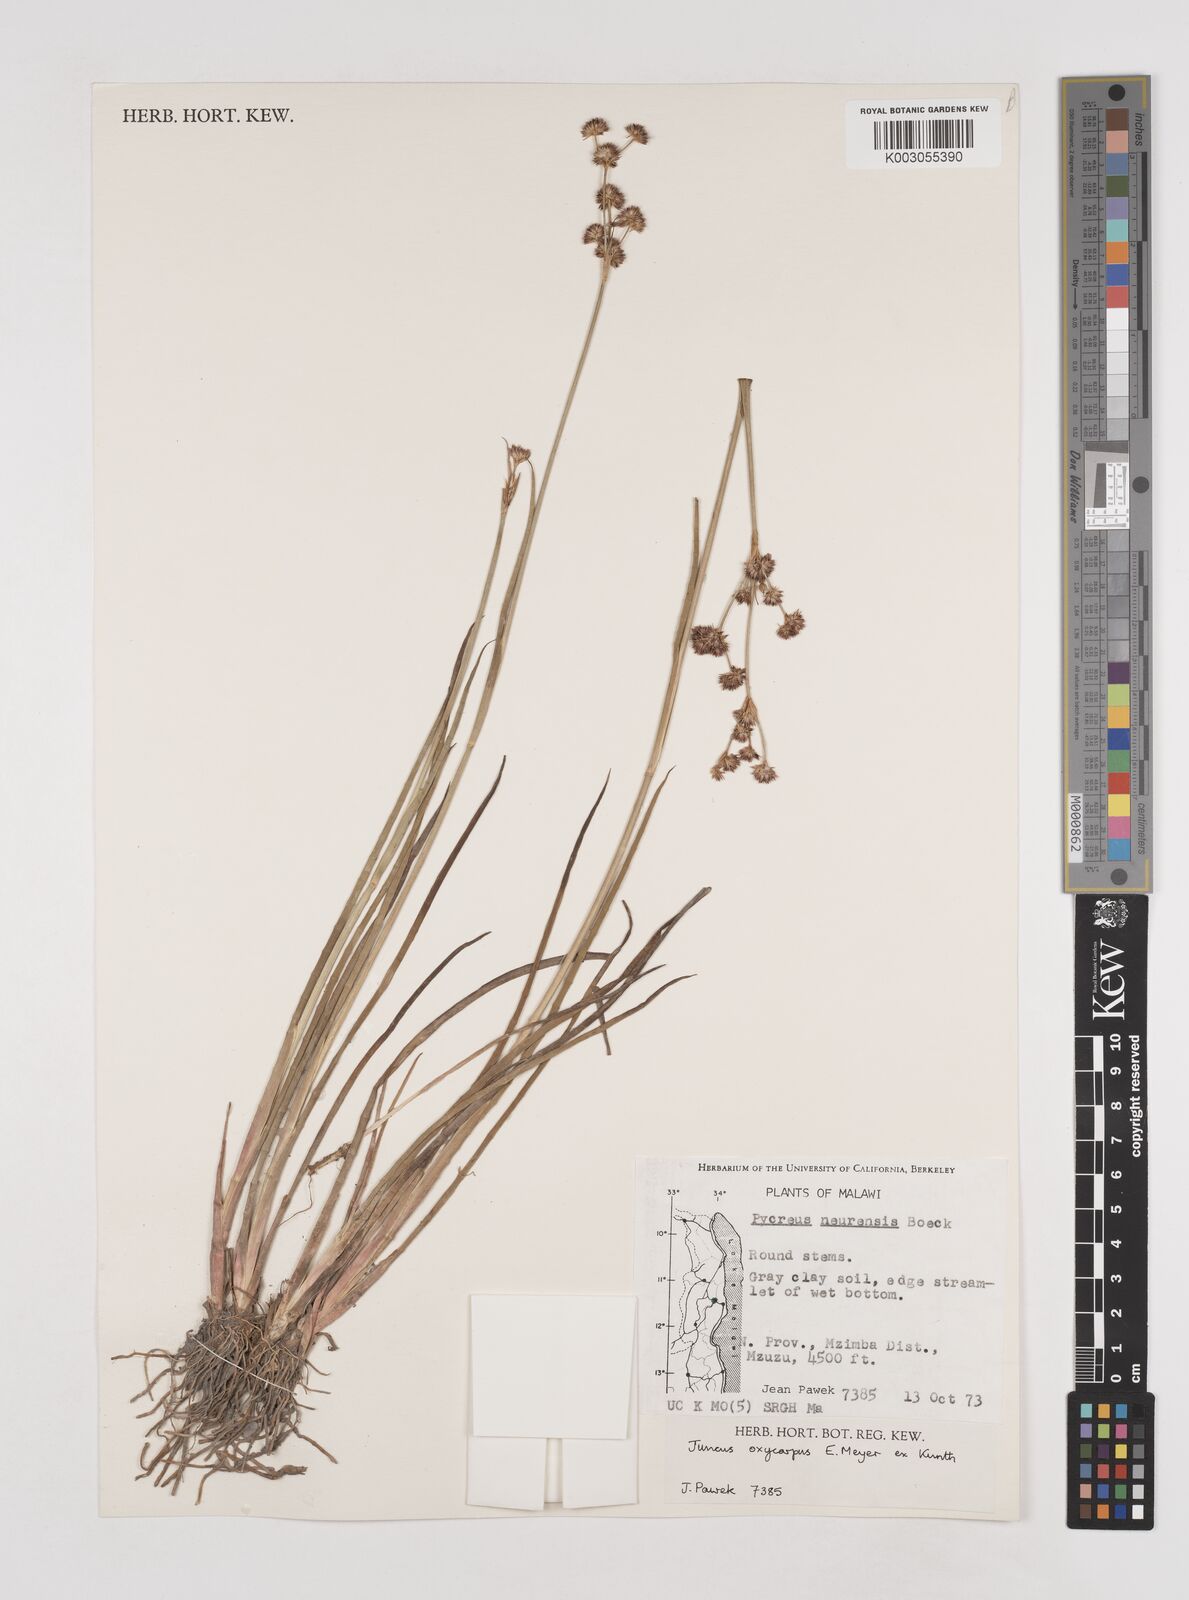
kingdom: Plantae
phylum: Tracheophyta
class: Liliopsida
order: Poales
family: Juncaceae
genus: Juncus
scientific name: Juncus oxycarpus
